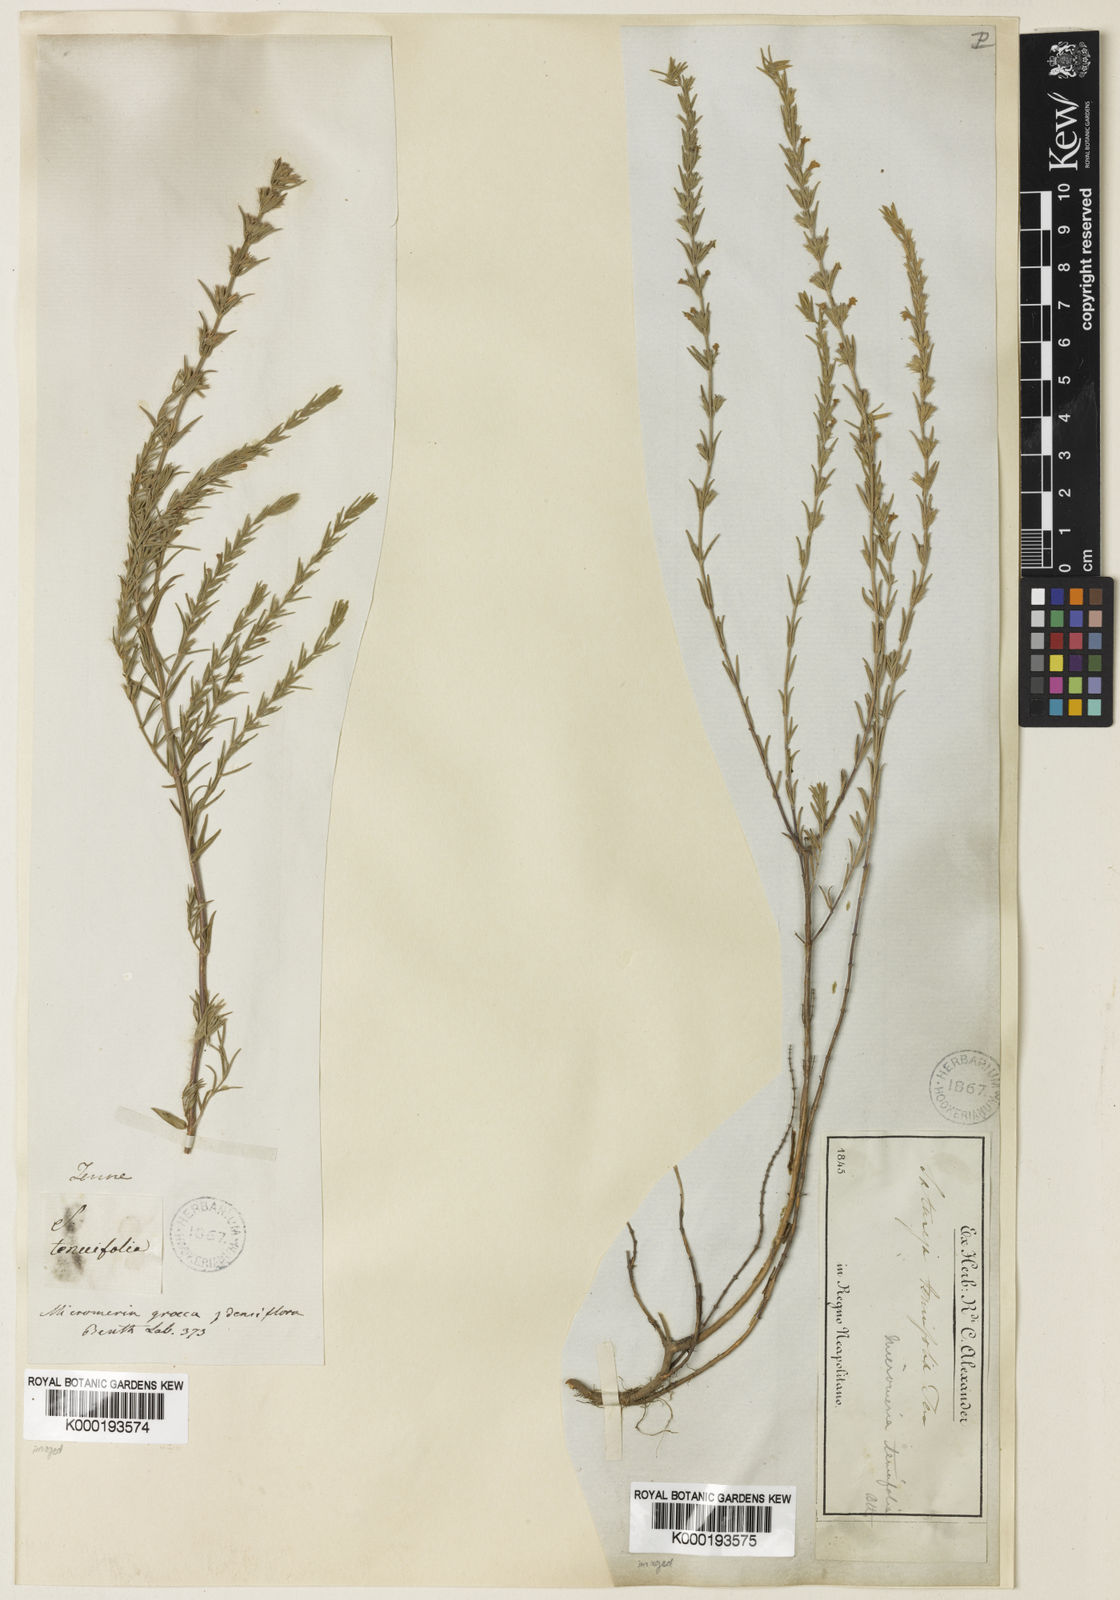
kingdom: Plantae
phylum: Tracheophyta
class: Magnoliopsida
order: Lamiales
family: Lamiaceae
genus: Micromeria
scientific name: Micromeria graeca
